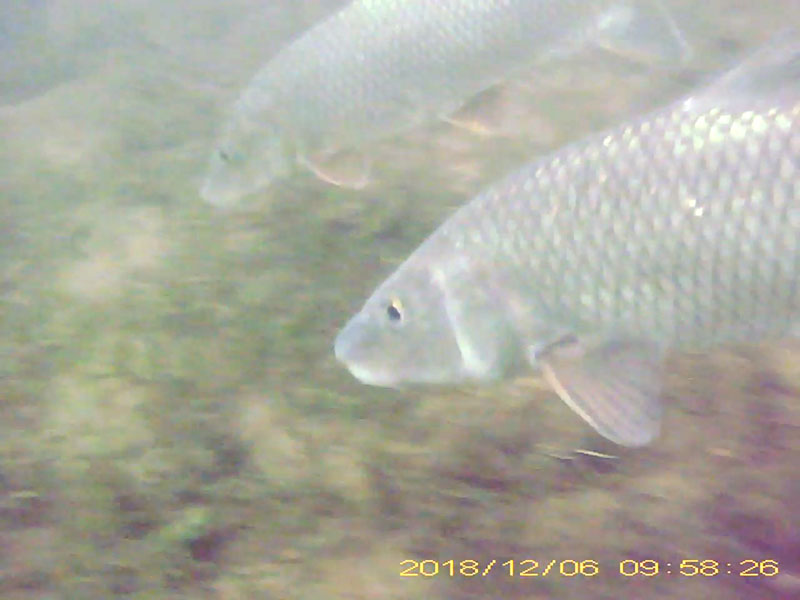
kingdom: Animalia
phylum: Chordata
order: Cypriniformes
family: Cyprinidae
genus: Hemibarbus
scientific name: Hemibarbus labeo
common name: ニゴイ
